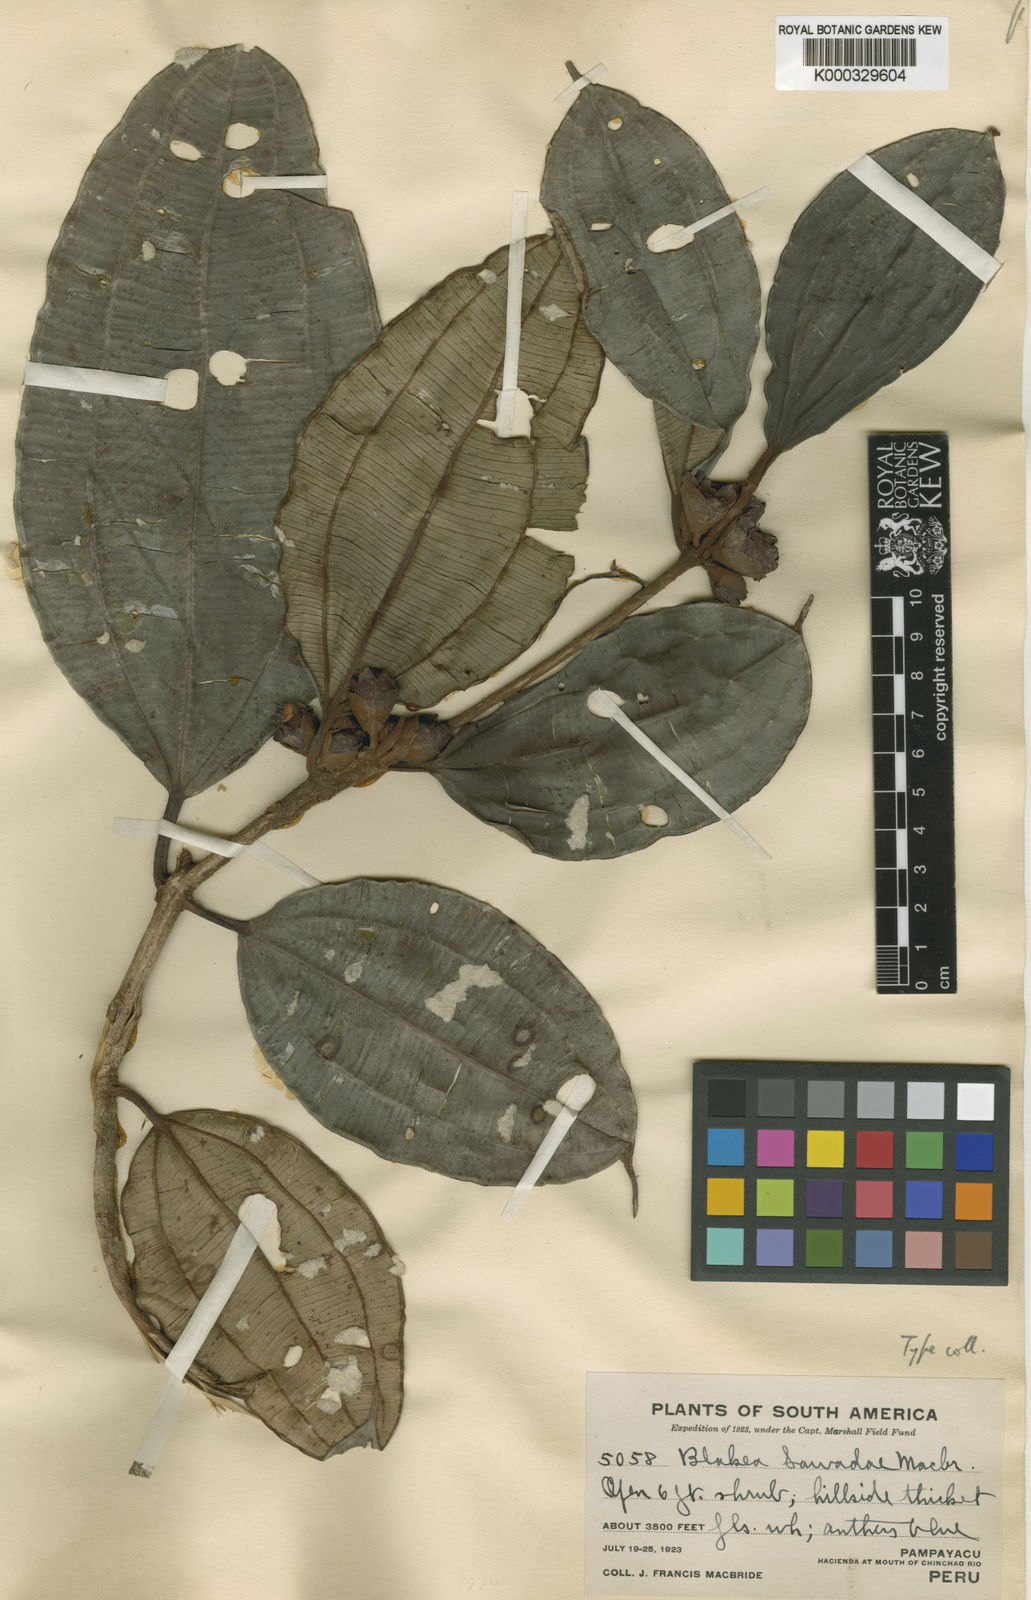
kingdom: Plantae
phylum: Tracheophyta
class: Magnoliopsida
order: Myrtales
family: Melastomataceae
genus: Blakea
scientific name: Blakea sawadae
